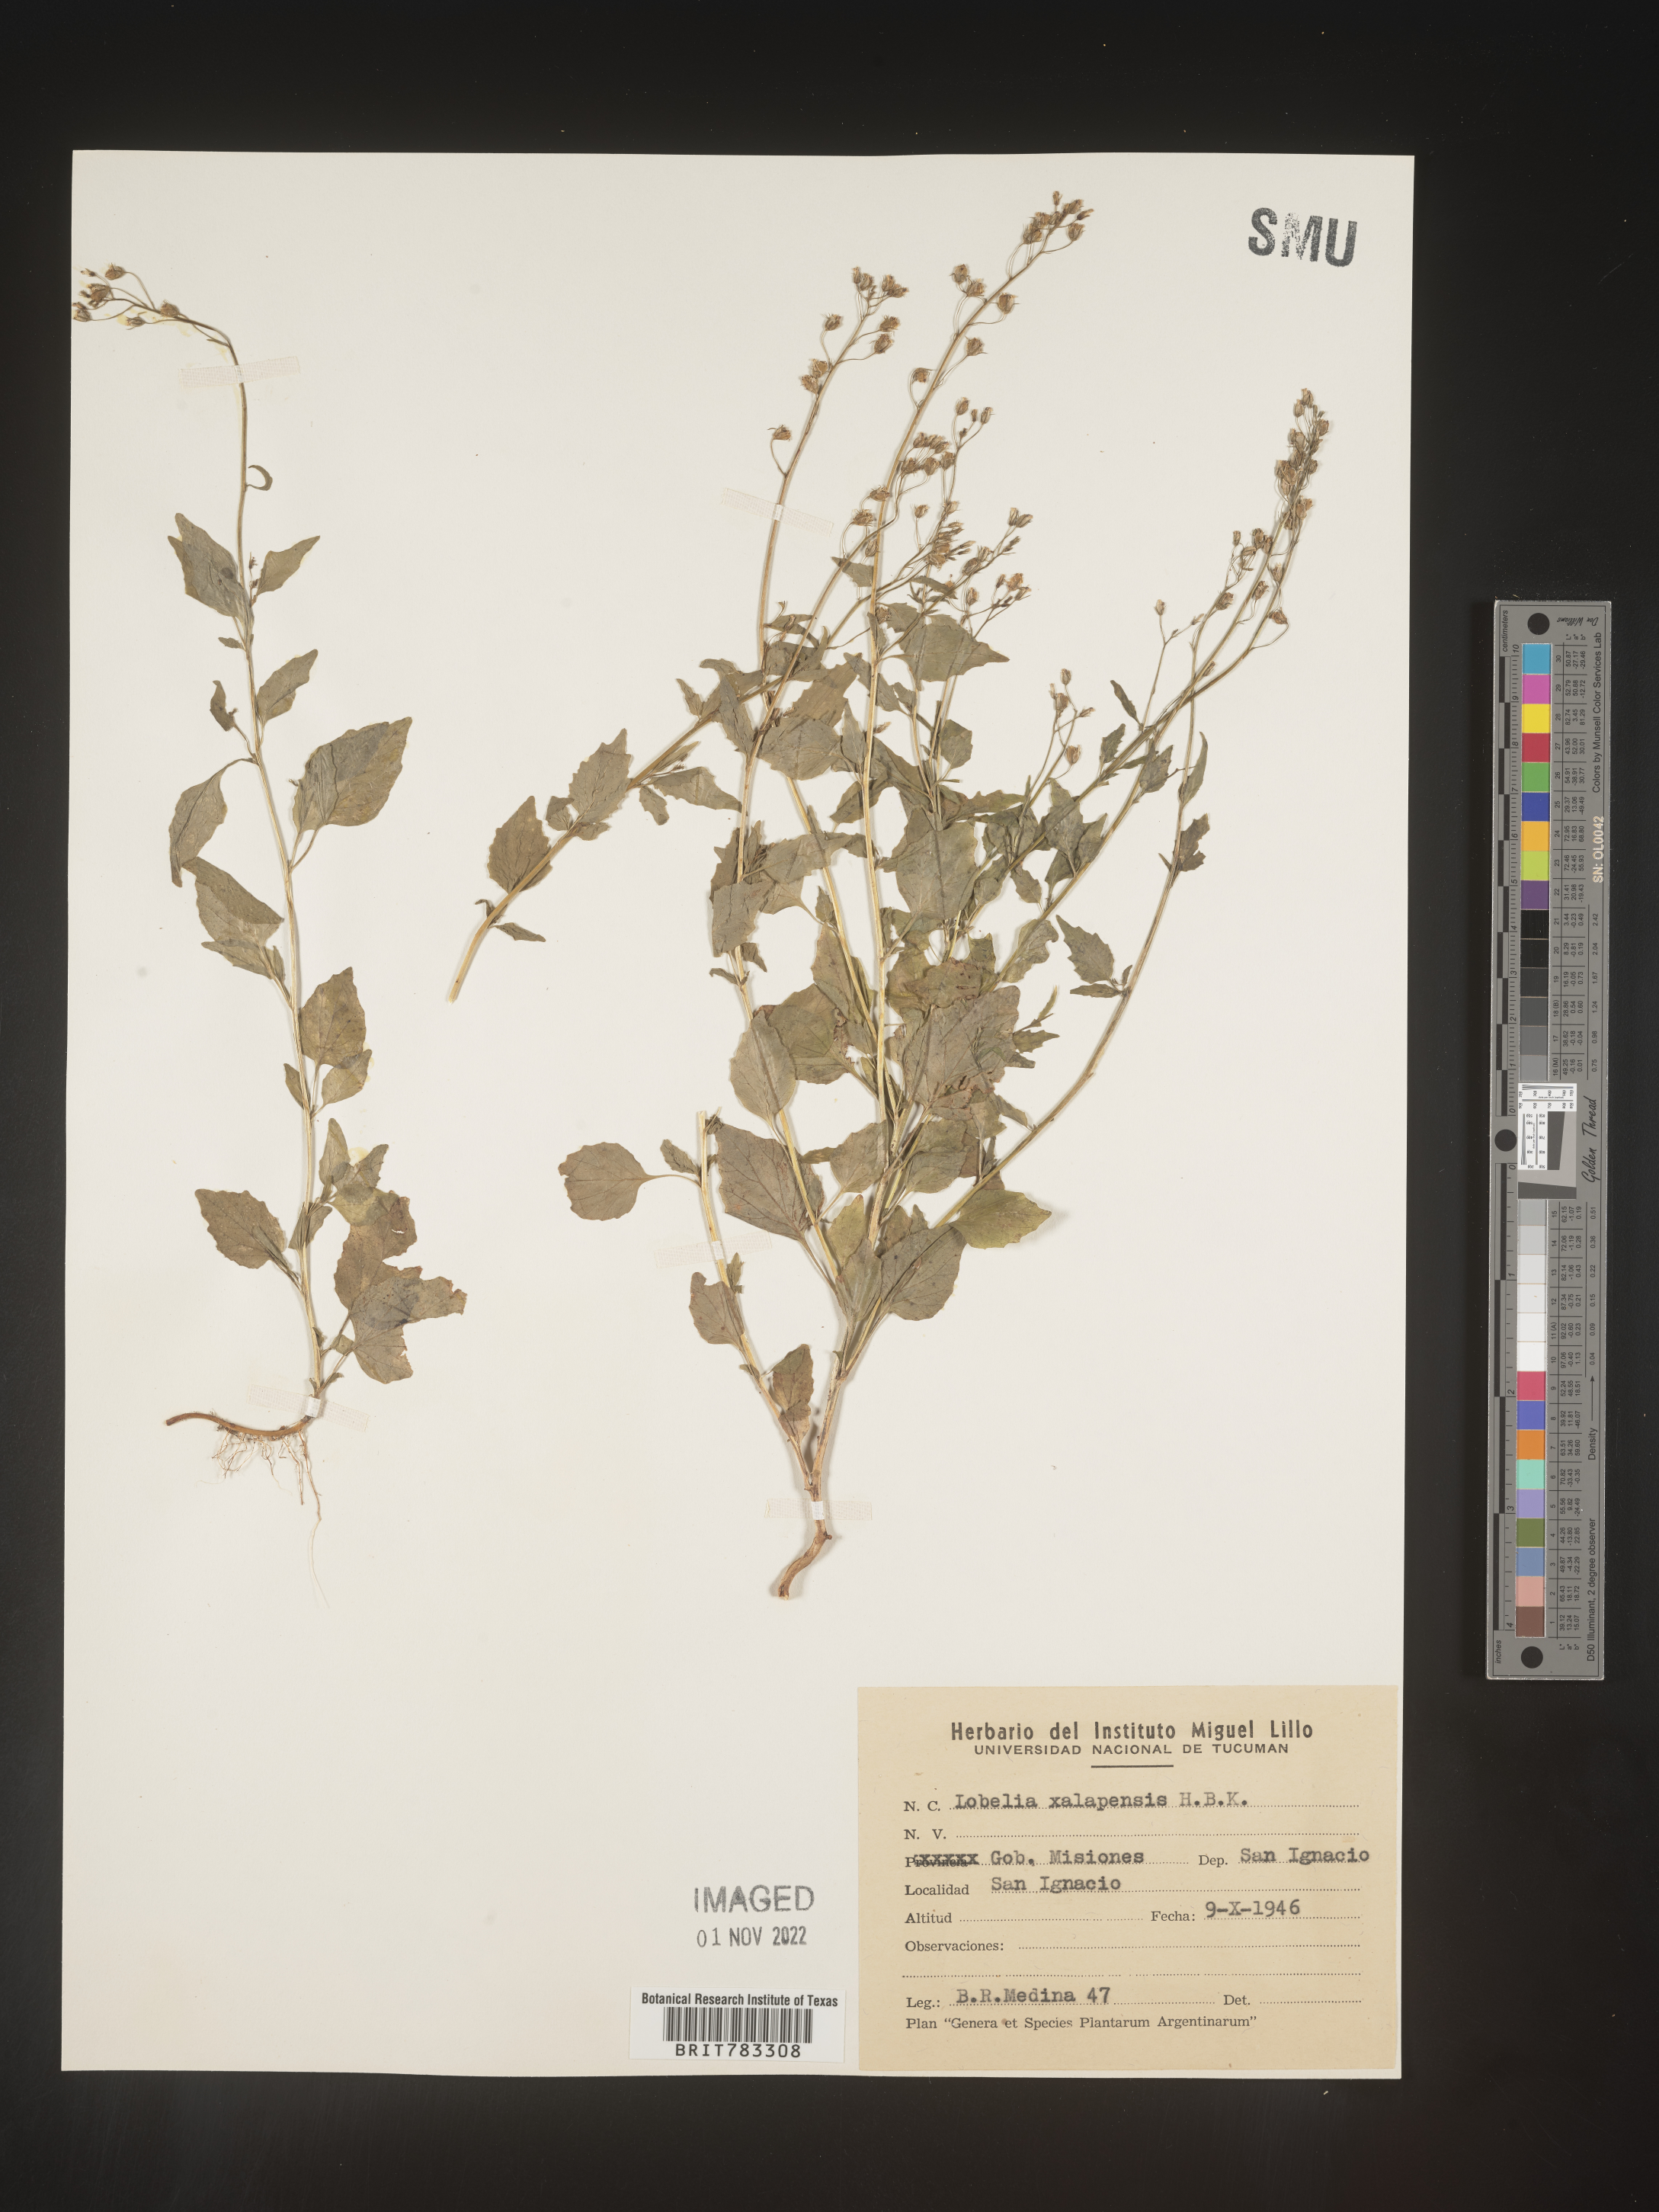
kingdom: Plantae
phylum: Tracheophyta
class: Magnoliopsida
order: Asterales
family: Campanulaceae
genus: Lobelia
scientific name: Lobelia
